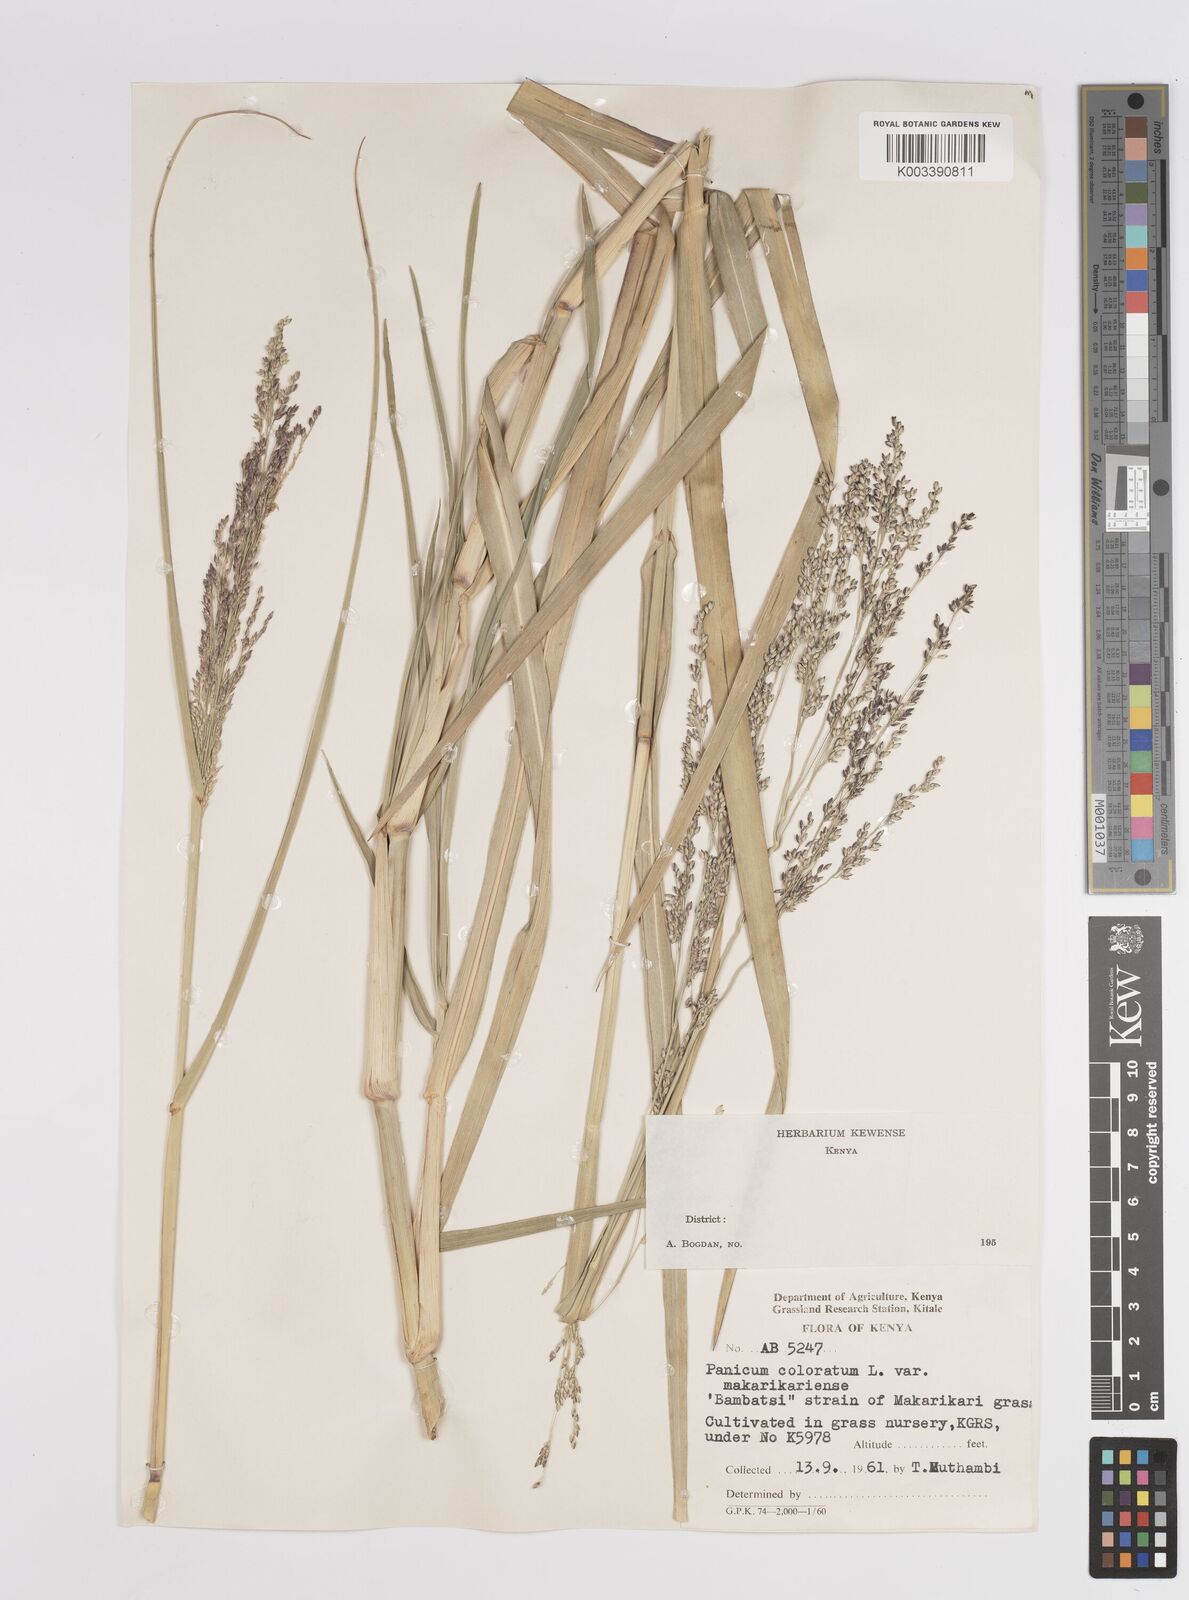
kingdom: Plantae
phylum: Tracheophyta
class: Liliopsida
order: Poales
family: Poaceae
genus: Panicum
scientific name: Panicum coloratum
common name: Kleingrass
